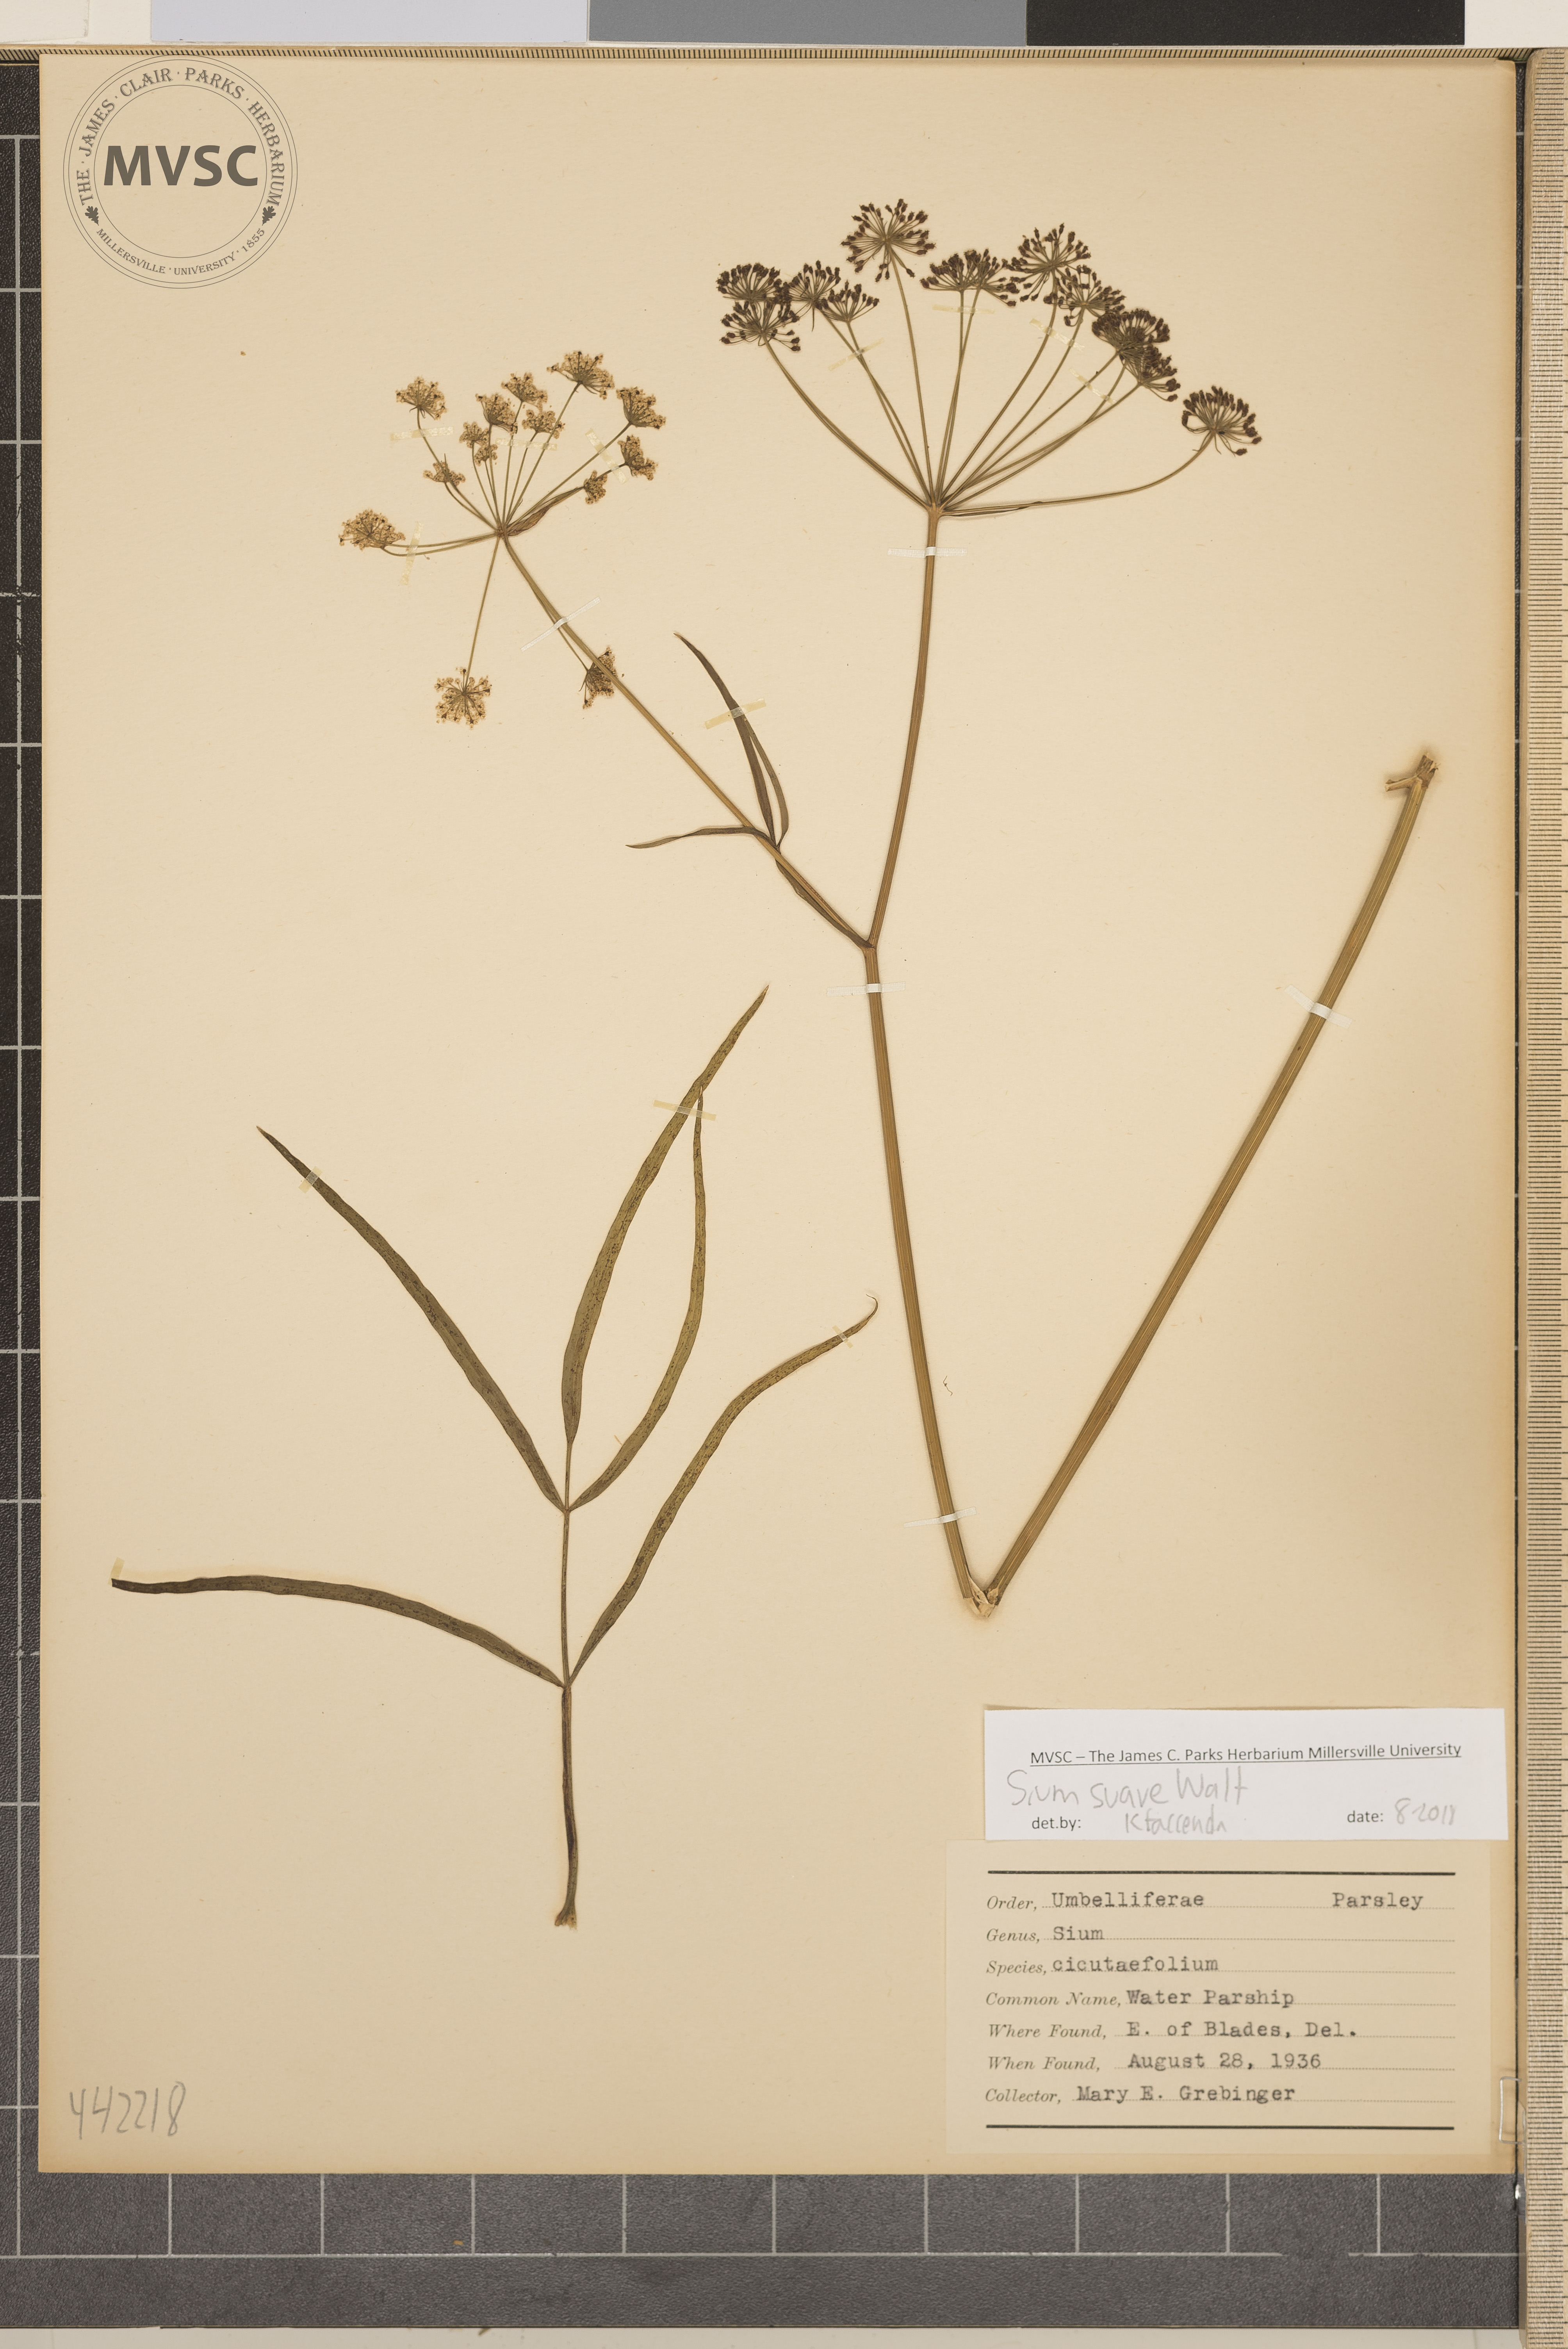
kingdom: Plantae
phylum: Tracheophyta
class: Magnoliopsida
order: Apiales
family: Apiaceae
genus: Sium
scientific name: Sium suave
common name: Water parsnip
